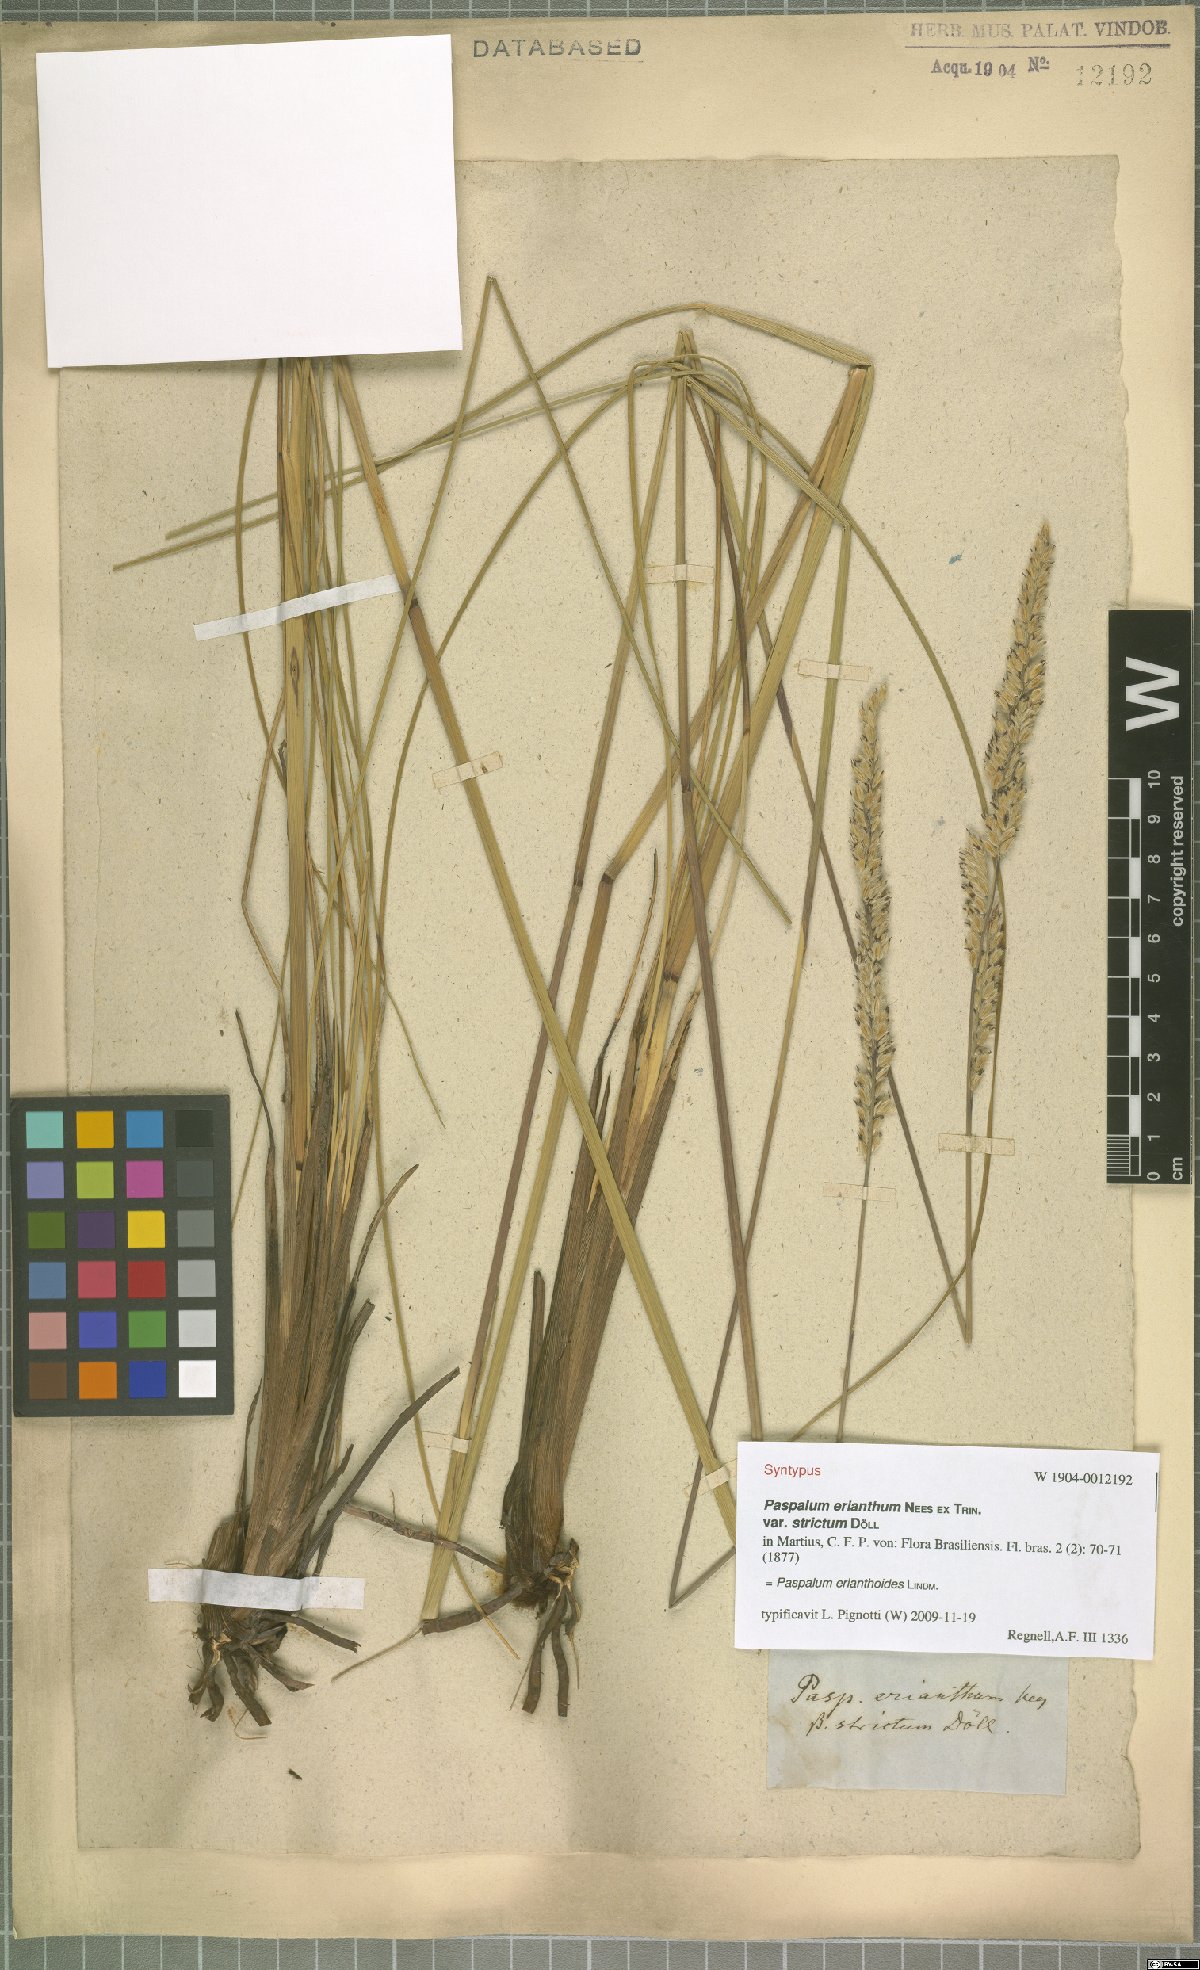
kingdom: Plantae
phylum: Tracheophyta
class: Liliopsida
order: Poales
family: Poaceae
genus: Paspalum
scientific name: Paspalum erianthoides
